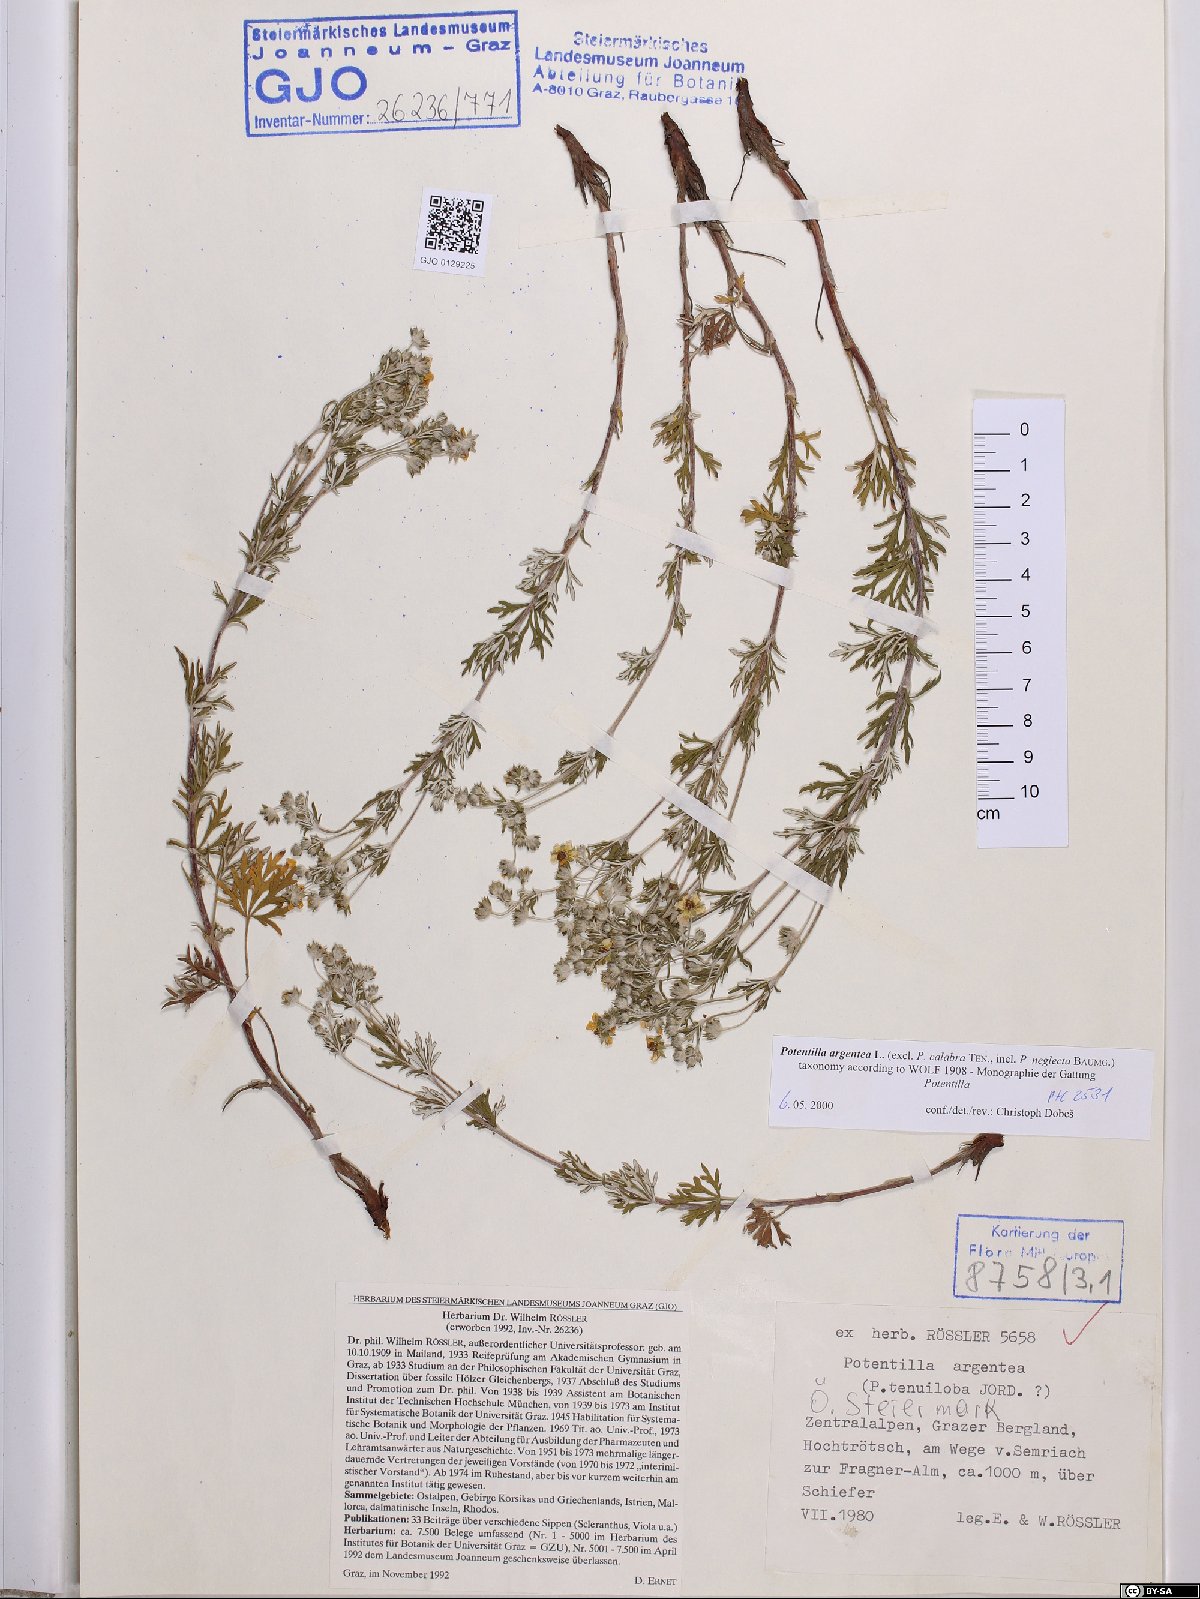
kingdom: Plantae
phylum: Tracheophyta
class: Magnoliopsida
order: Rosales
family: Rosaceae
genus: Potentilla
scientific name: Potentilla argentea
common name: Hoary cinquefoil
